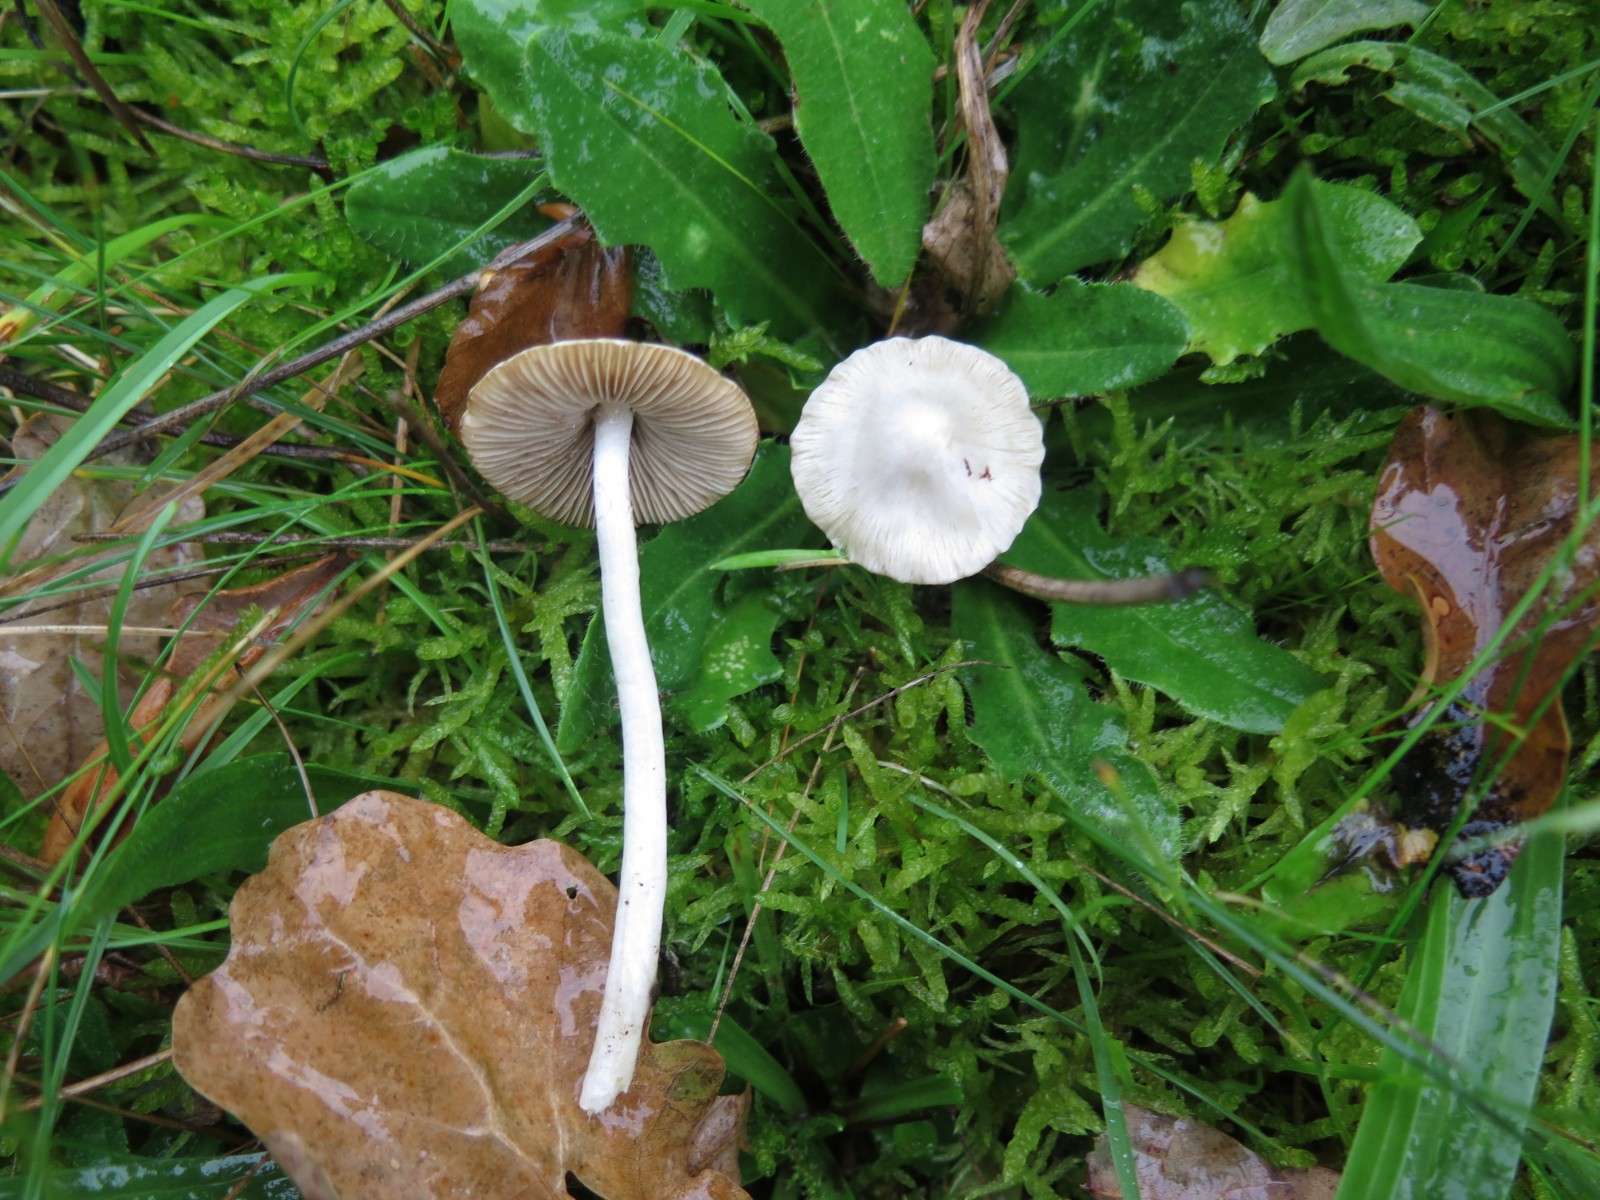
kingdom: Fungi
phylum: Basidiomycota
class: Agaricomycetes
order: Agaricales
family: Inocybaceae
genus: Inocybe
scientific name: Inocybe
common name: almindelig trævlhat
